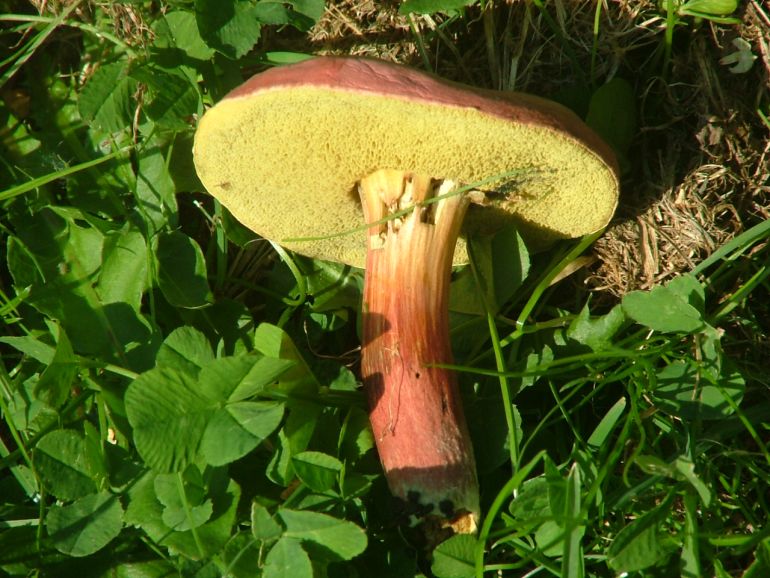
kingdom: Fungi
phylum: Basidiomycota
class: Agaricomycetes
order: Boletales
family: Boletaceae
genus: Hortiboletus
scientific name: Hortiboletus rubellus
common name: blodrød rørhat
